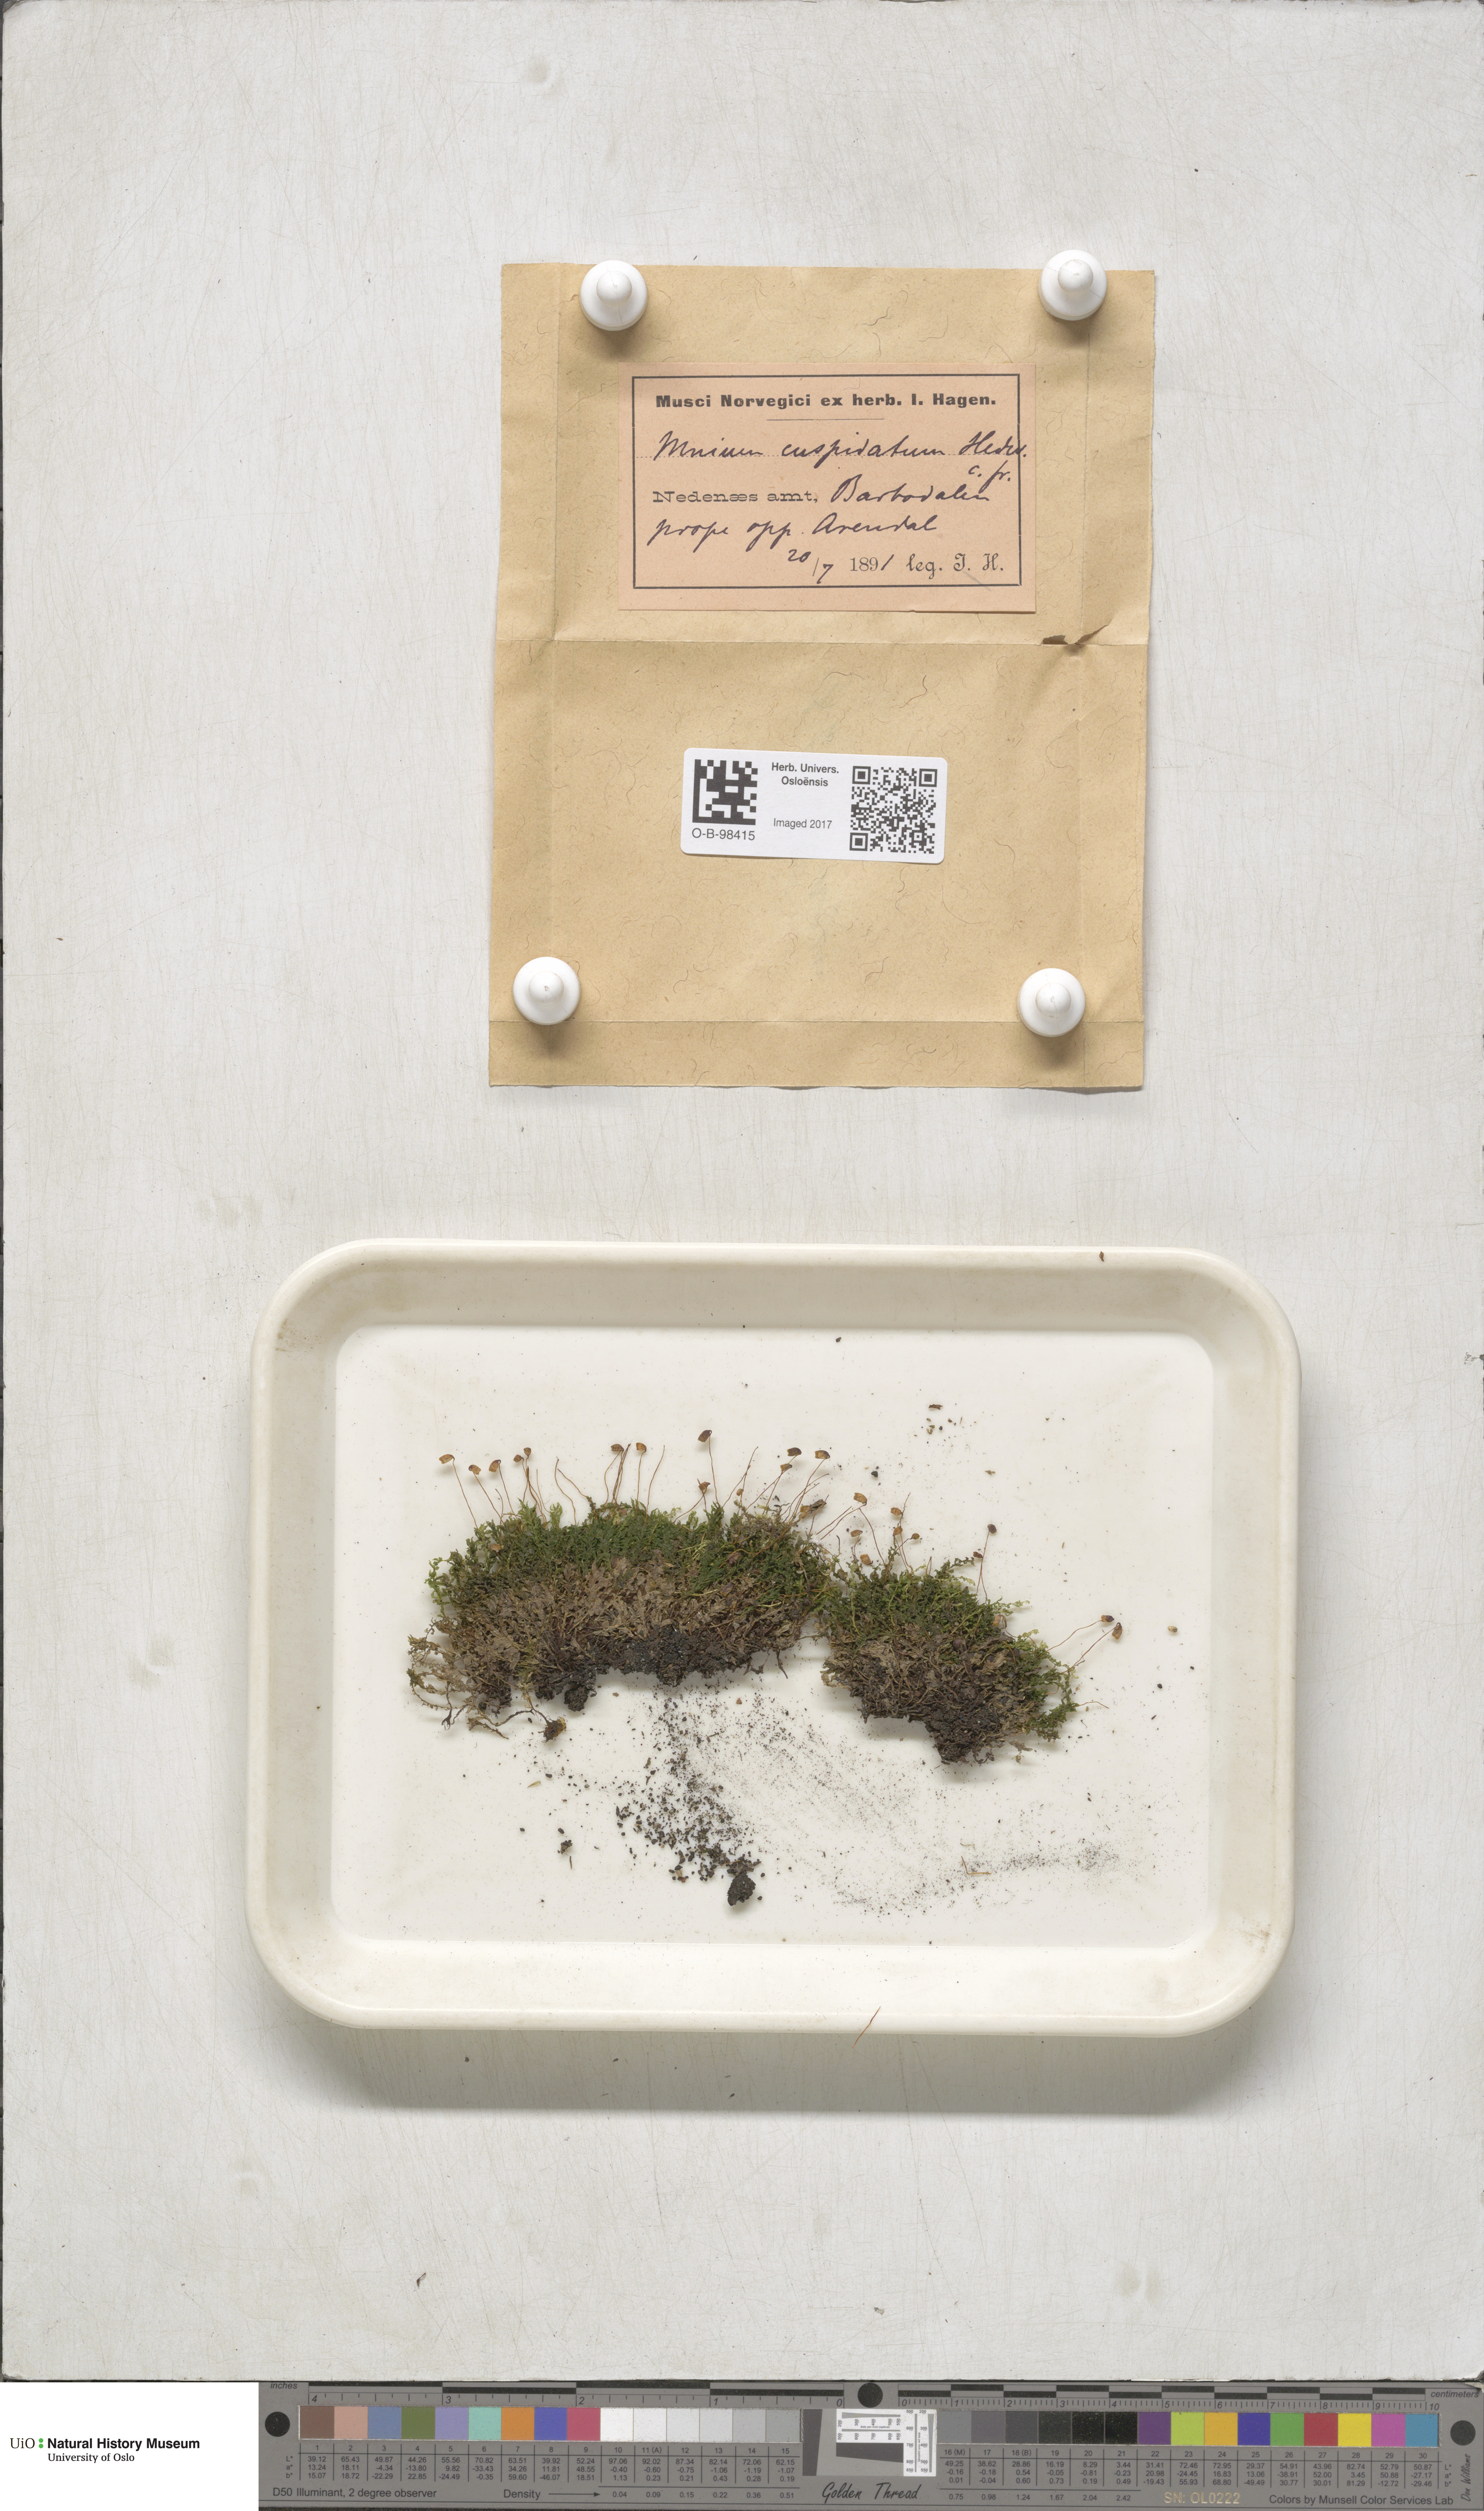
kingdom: Plantae
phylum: Bryophyta
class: Bryopsida
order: Bryales
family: Mniaceae
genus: Plagiomnium
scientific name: Plagiomnium cuspidatum
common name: Woodsy leafy moss
